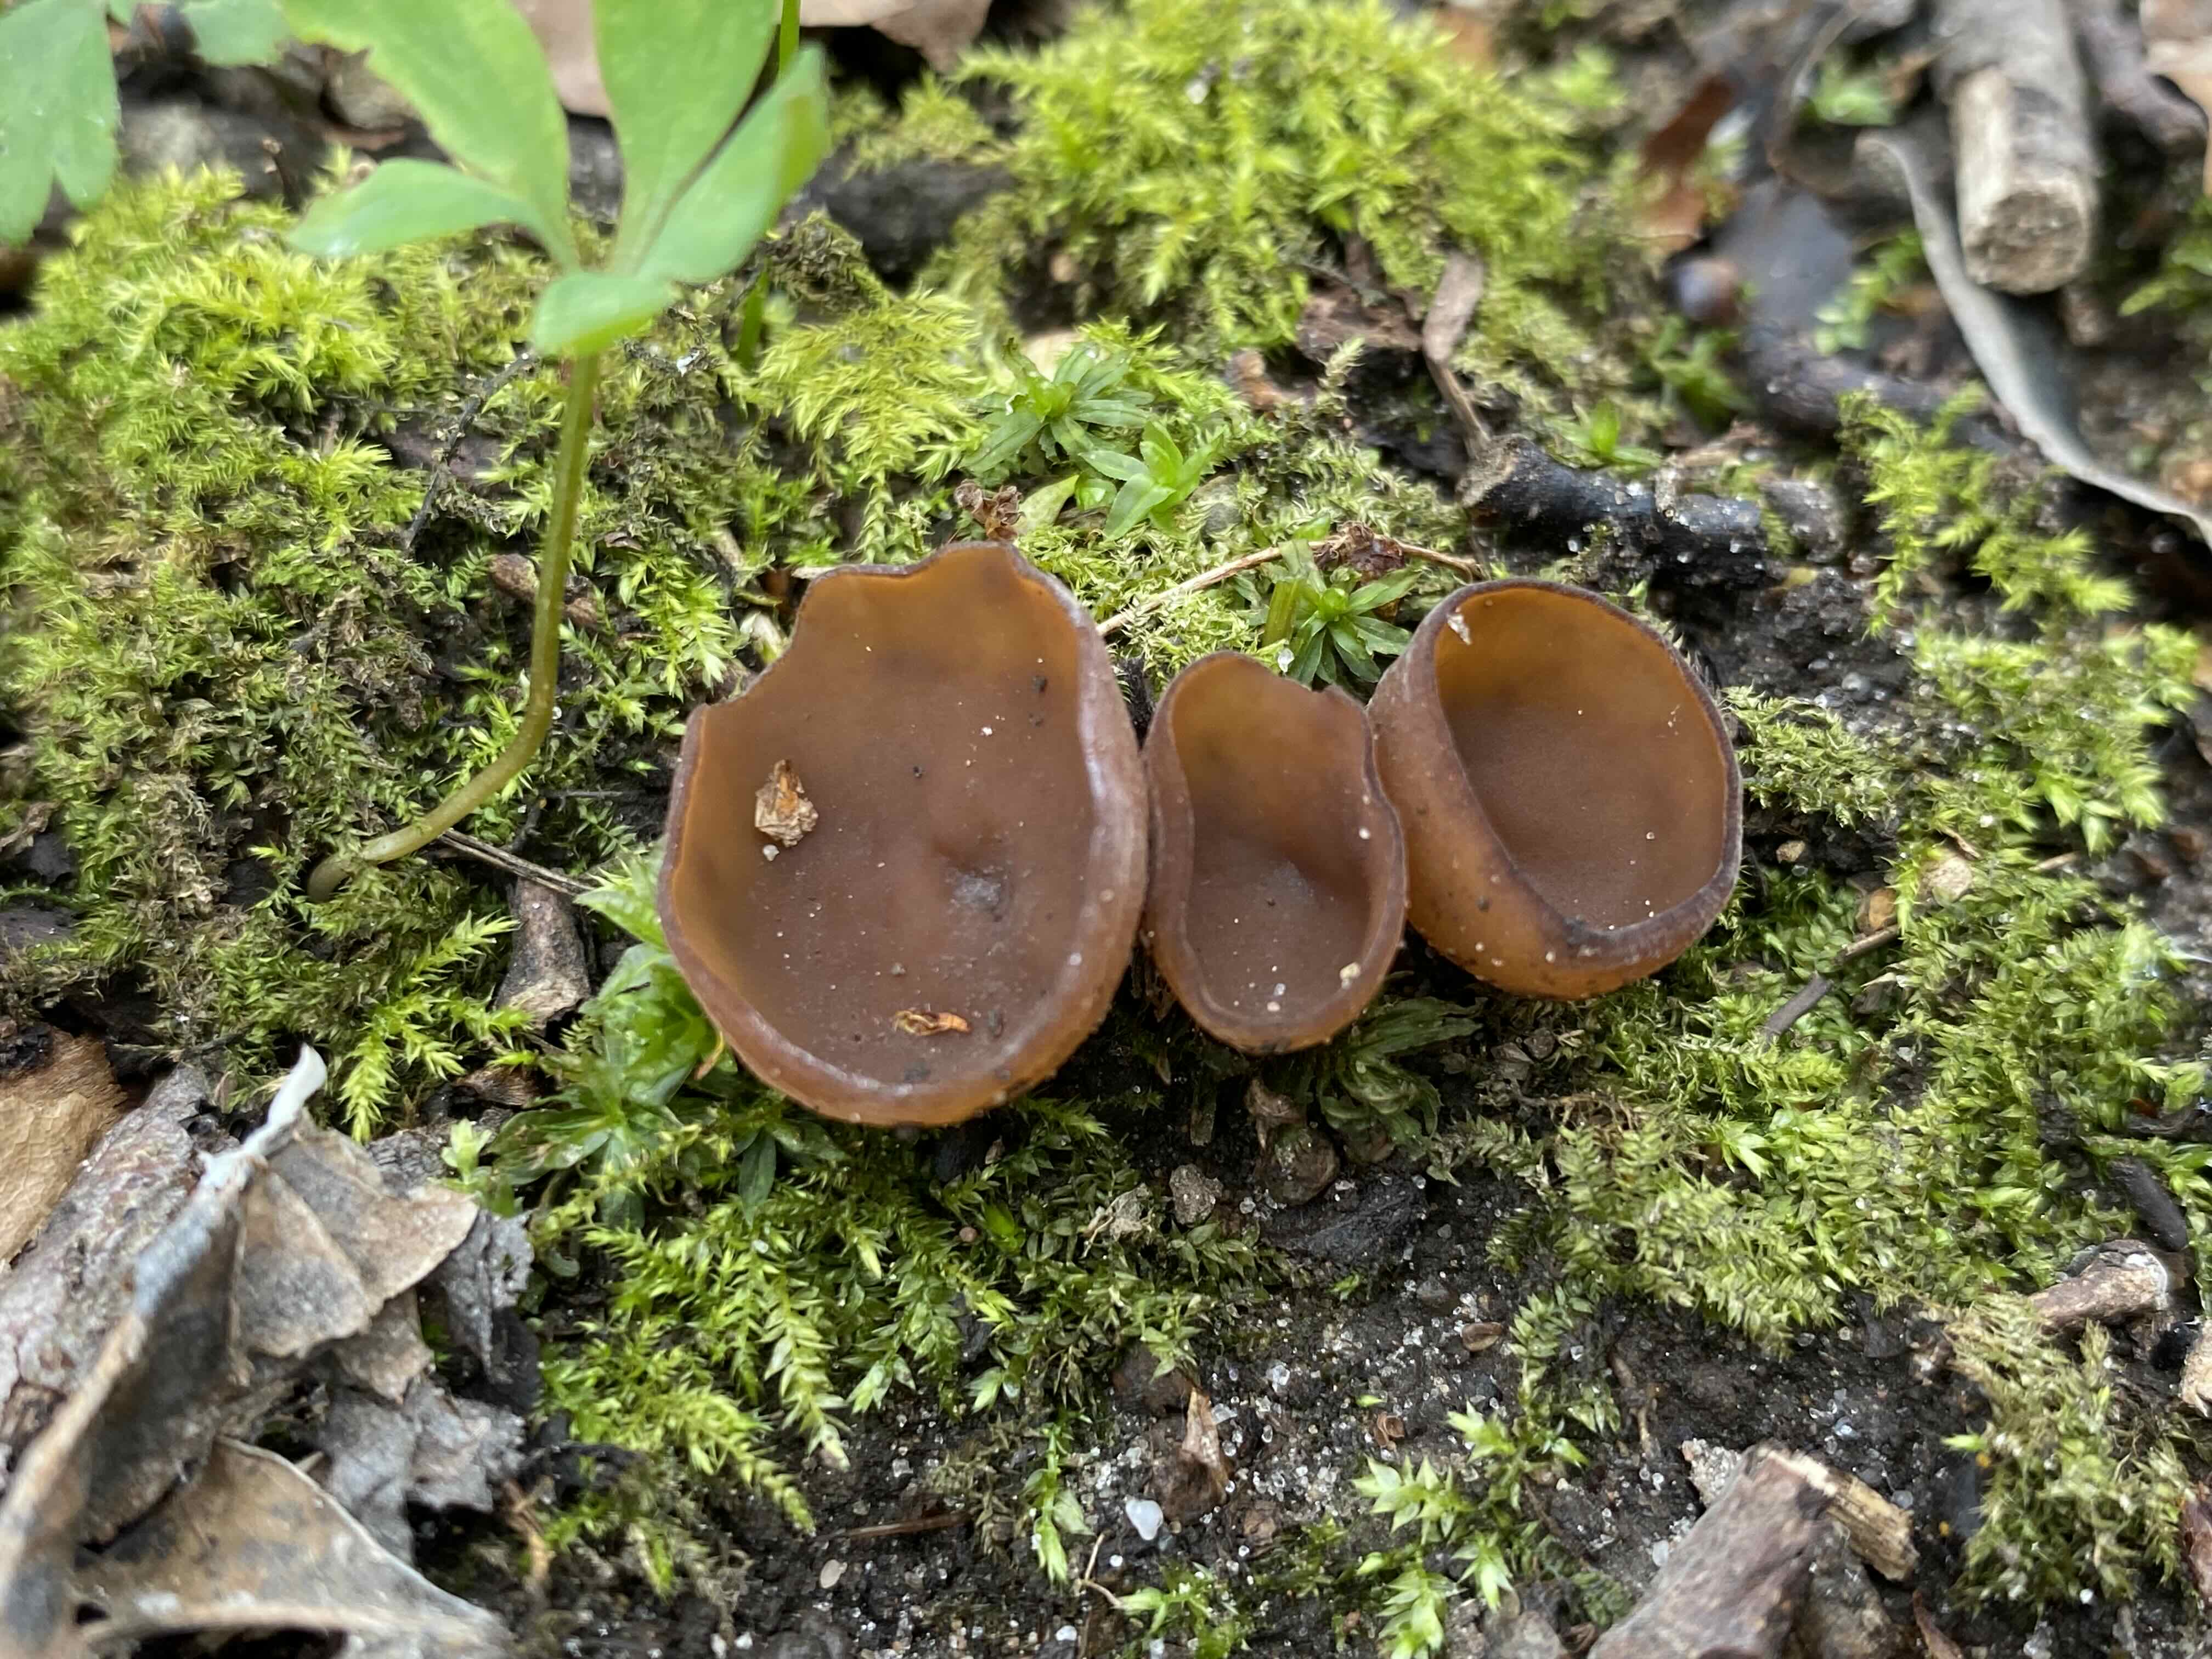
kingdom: Fungi
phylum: Ascomycota
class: Leotiomycetes
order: Helotiales
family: Sclerotiniaceae
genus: Dumontinia
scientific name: Dumontinia tuberosa
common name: anemone-knoldskive
